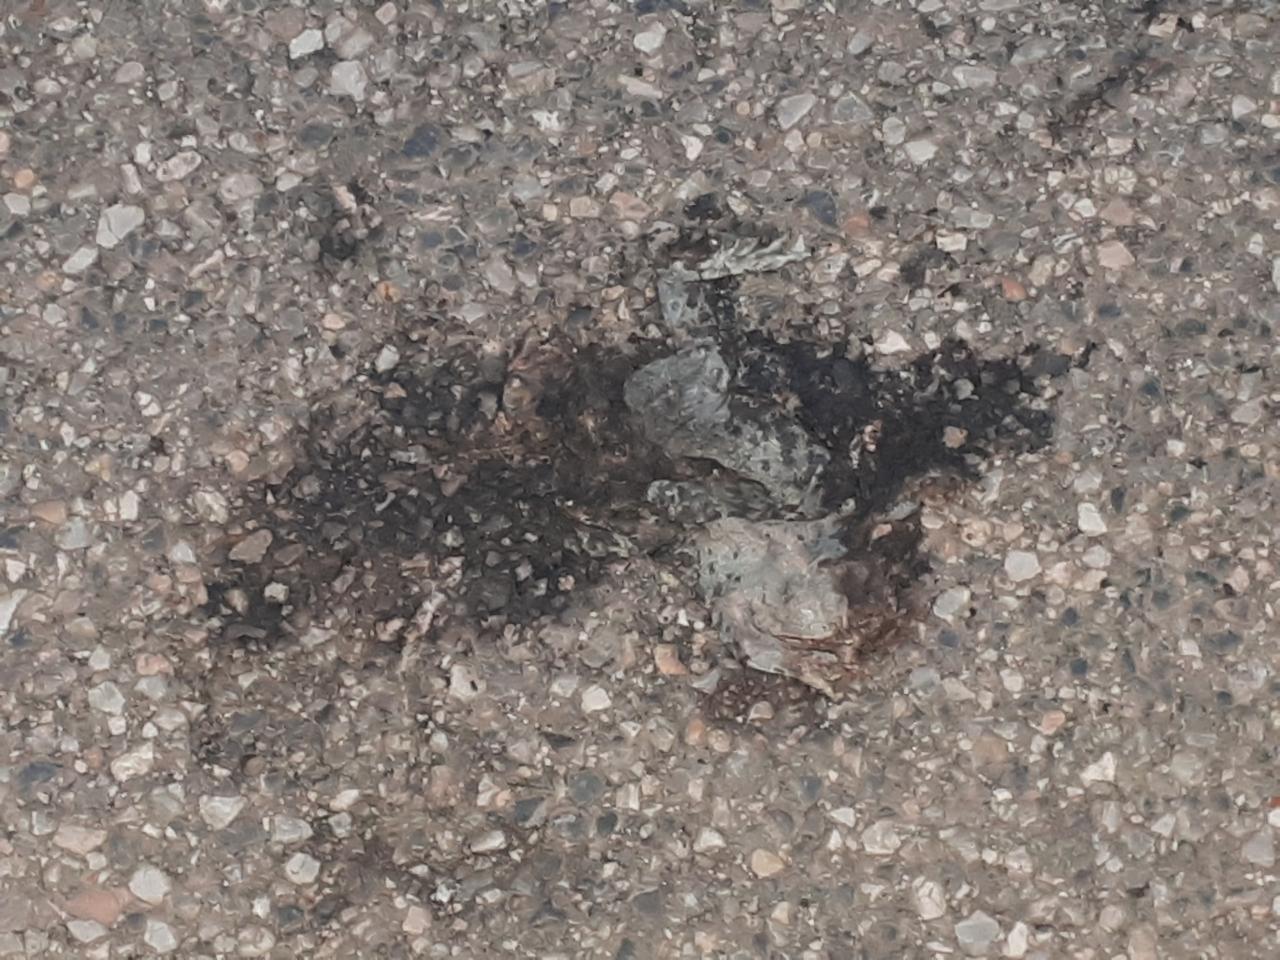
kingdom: Animalia
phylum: Chordata
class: Amphibia
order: Anura
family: Bufonidae
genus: Bufotes
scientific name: Bufotes viridis
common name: European green toad
